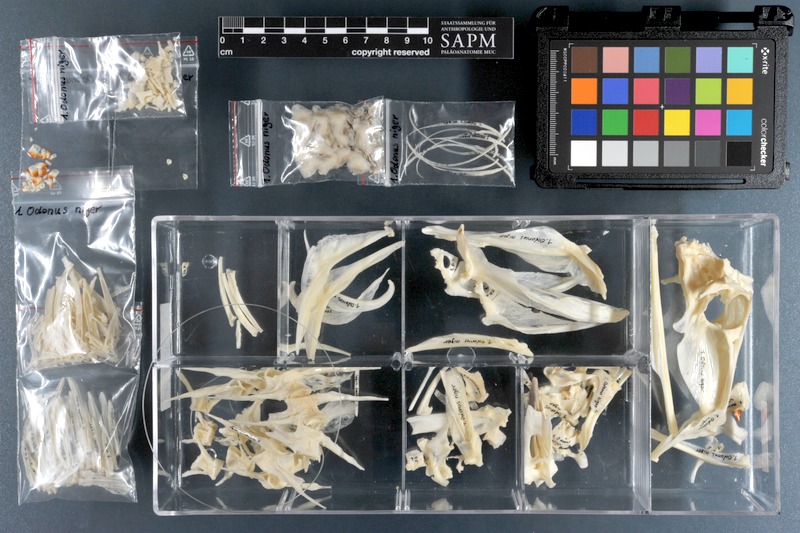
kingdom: Animalia
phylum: Chordata
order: Tetraodontiformes
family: Balistidae
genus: Odonus
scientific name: Odonus niger
